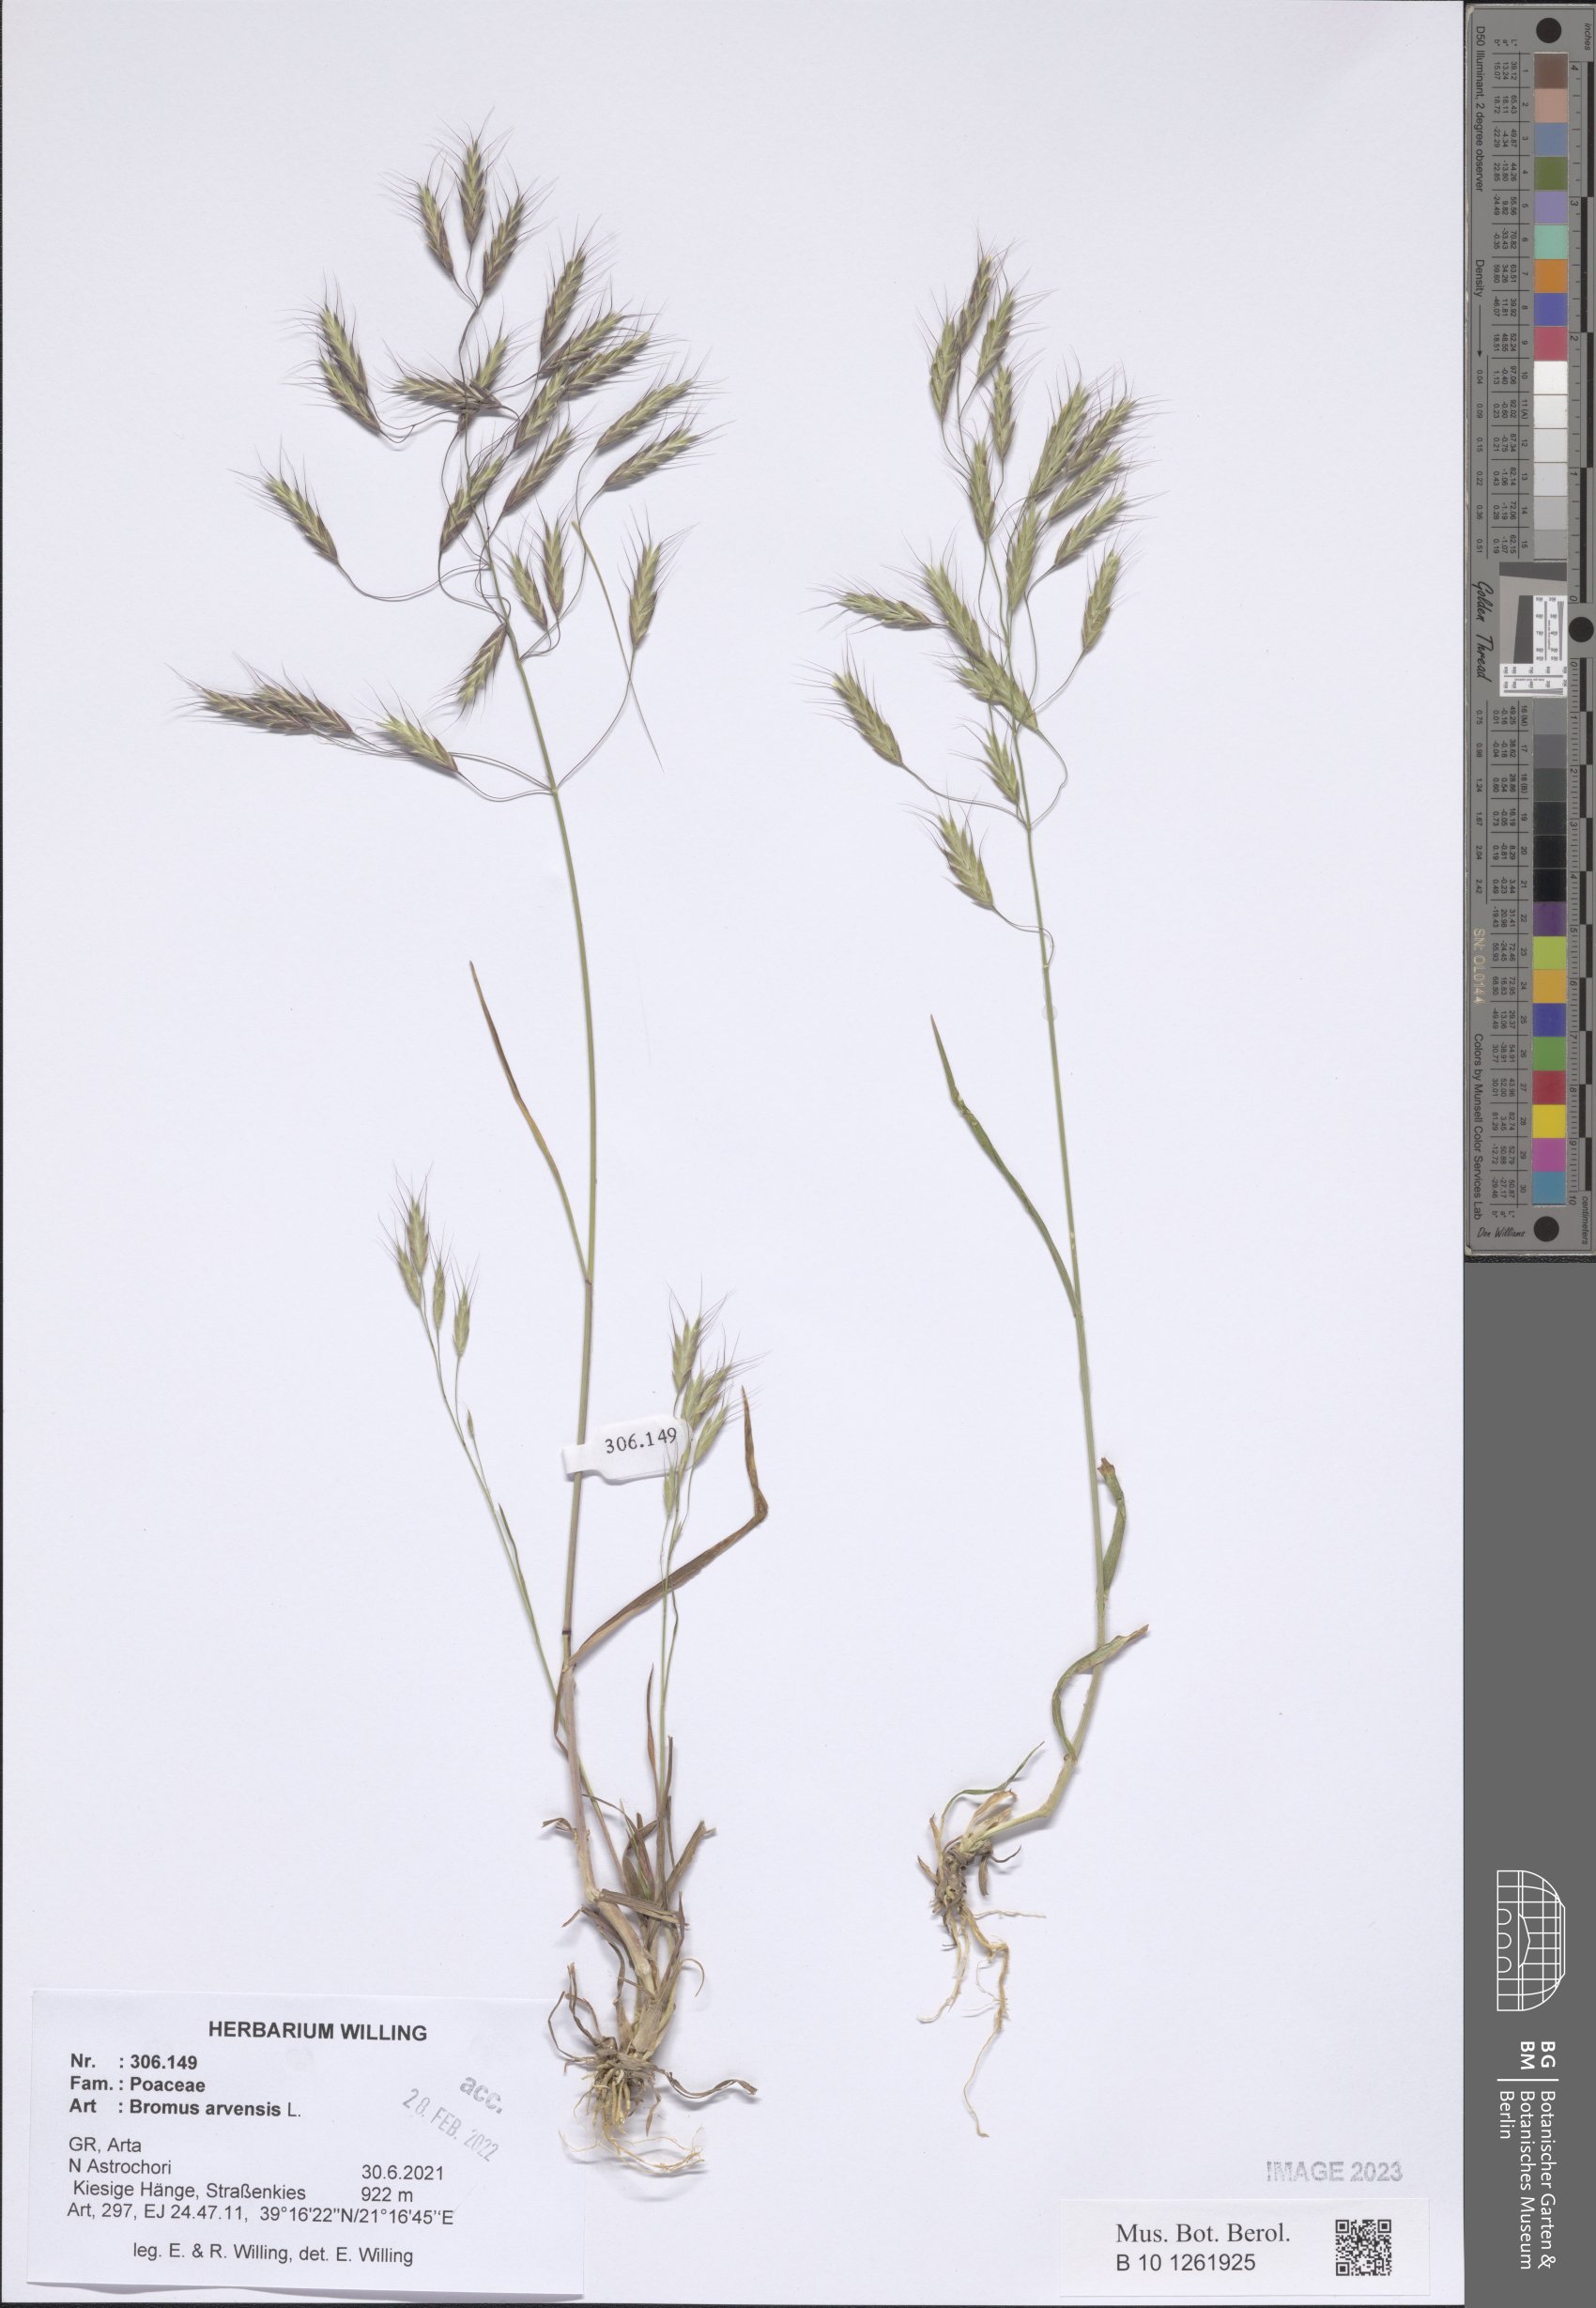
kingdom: Plantae
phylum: Tracheophyta
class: Liliopsida
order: Poales
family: Poaceae
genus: Bromus
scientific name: Bromus arvensis
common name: Field brome
